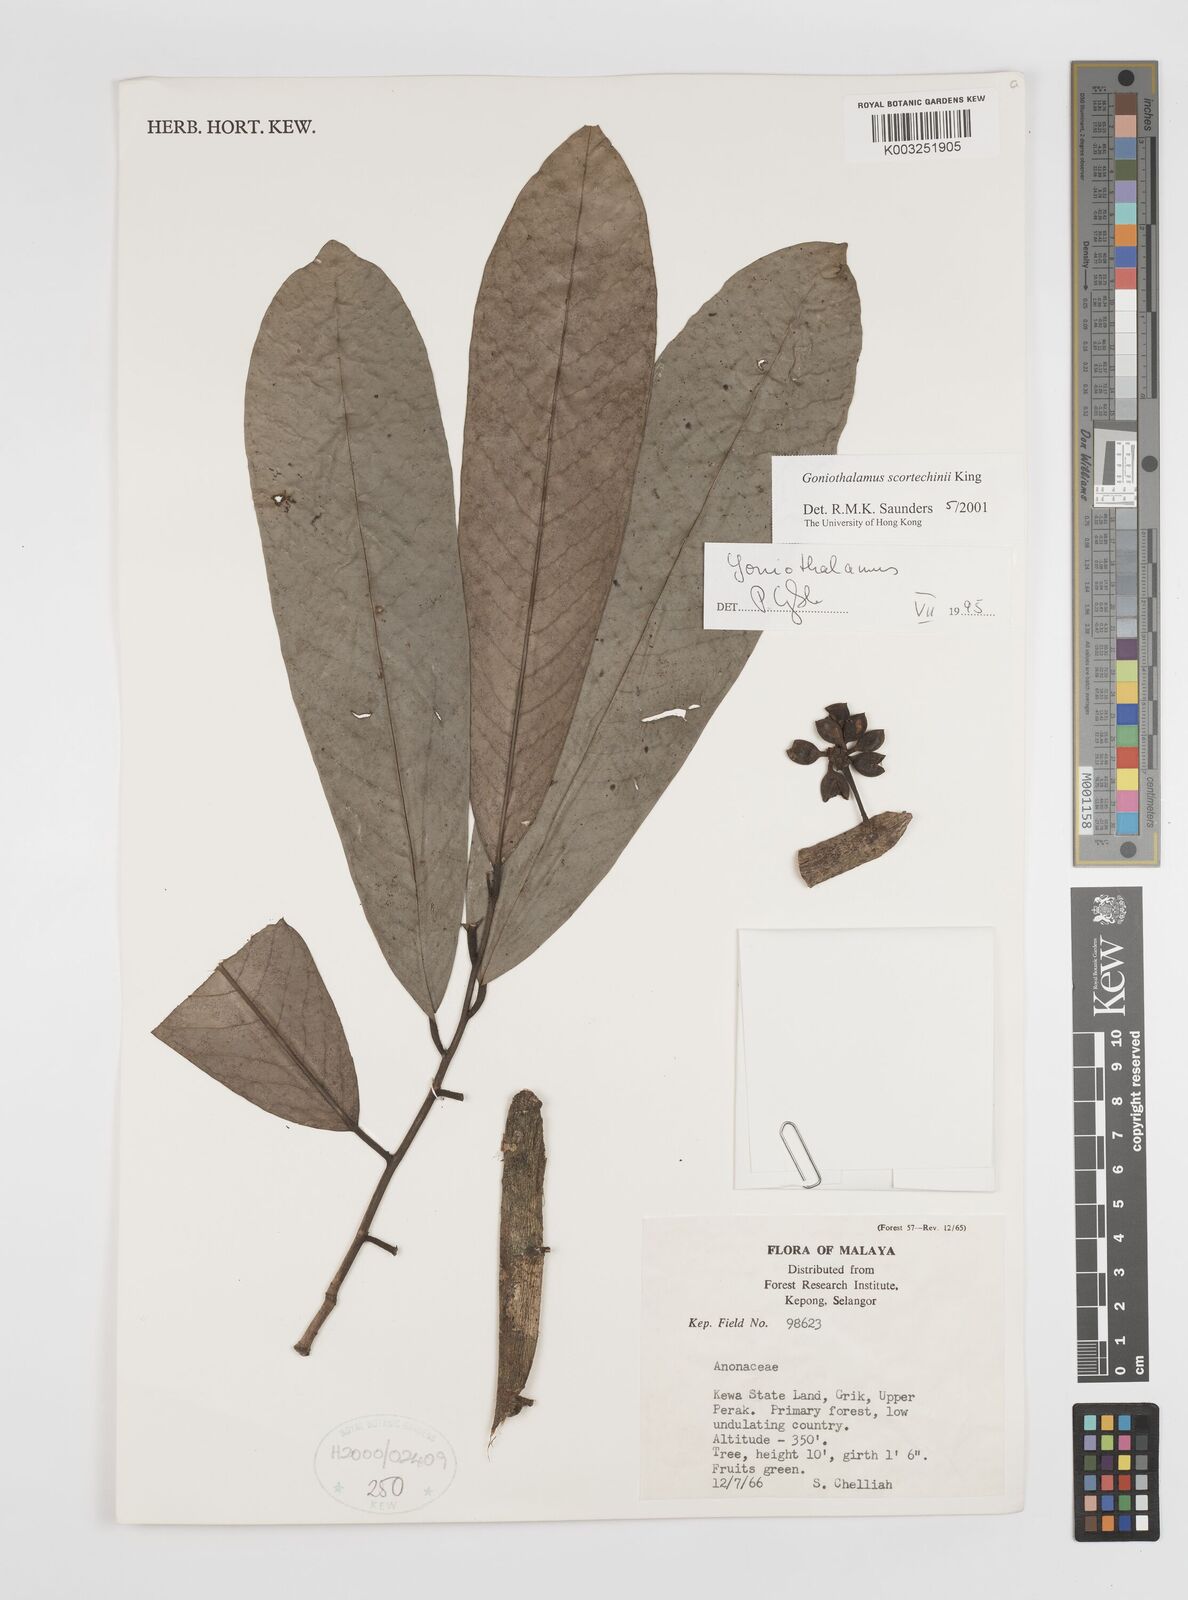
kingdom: Plantae
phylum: Tracheophyta
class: Magnoliopsida
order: Magnoliales
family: Annonaceae
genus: Goniothalamus
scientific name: Goniothalamus scortechinii
